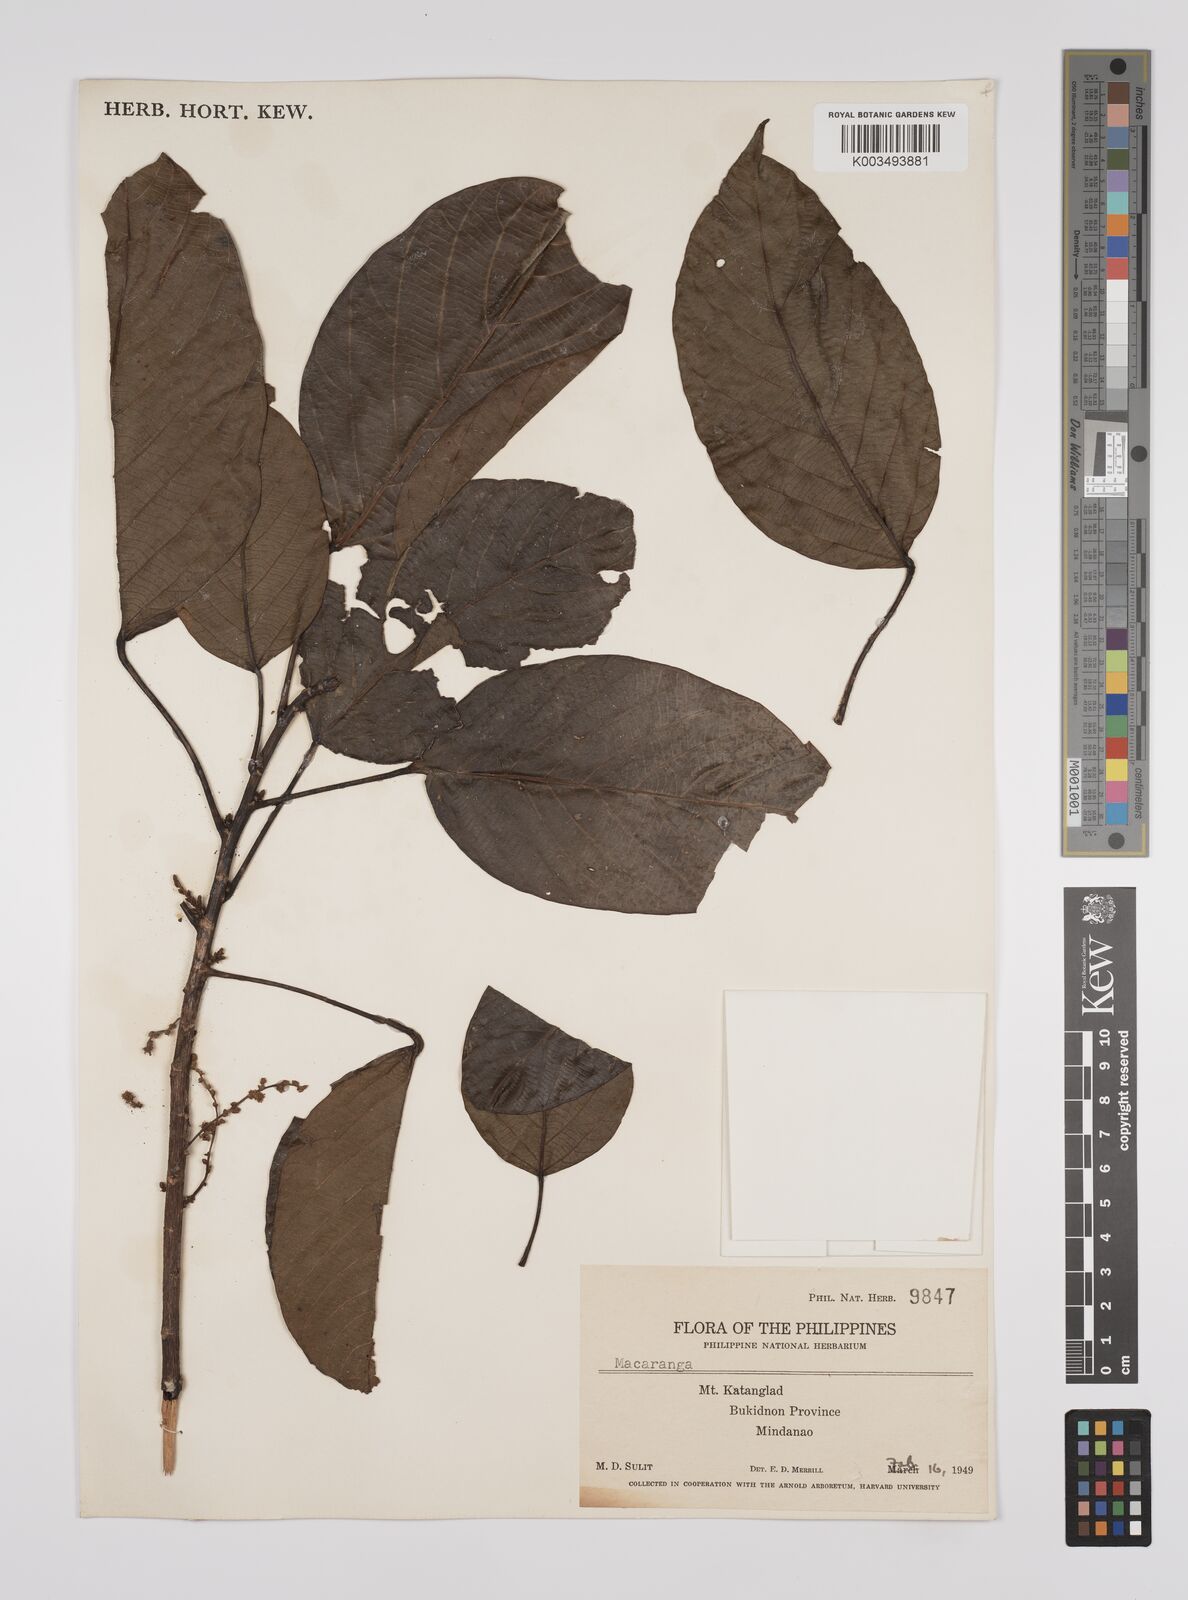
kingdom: Plantae
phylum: Tracheophyta
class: Magnoliopsida
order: Malpighiales
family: Euphorbiaceae
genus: Macaranga
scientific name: Macaranga cuernosensis
